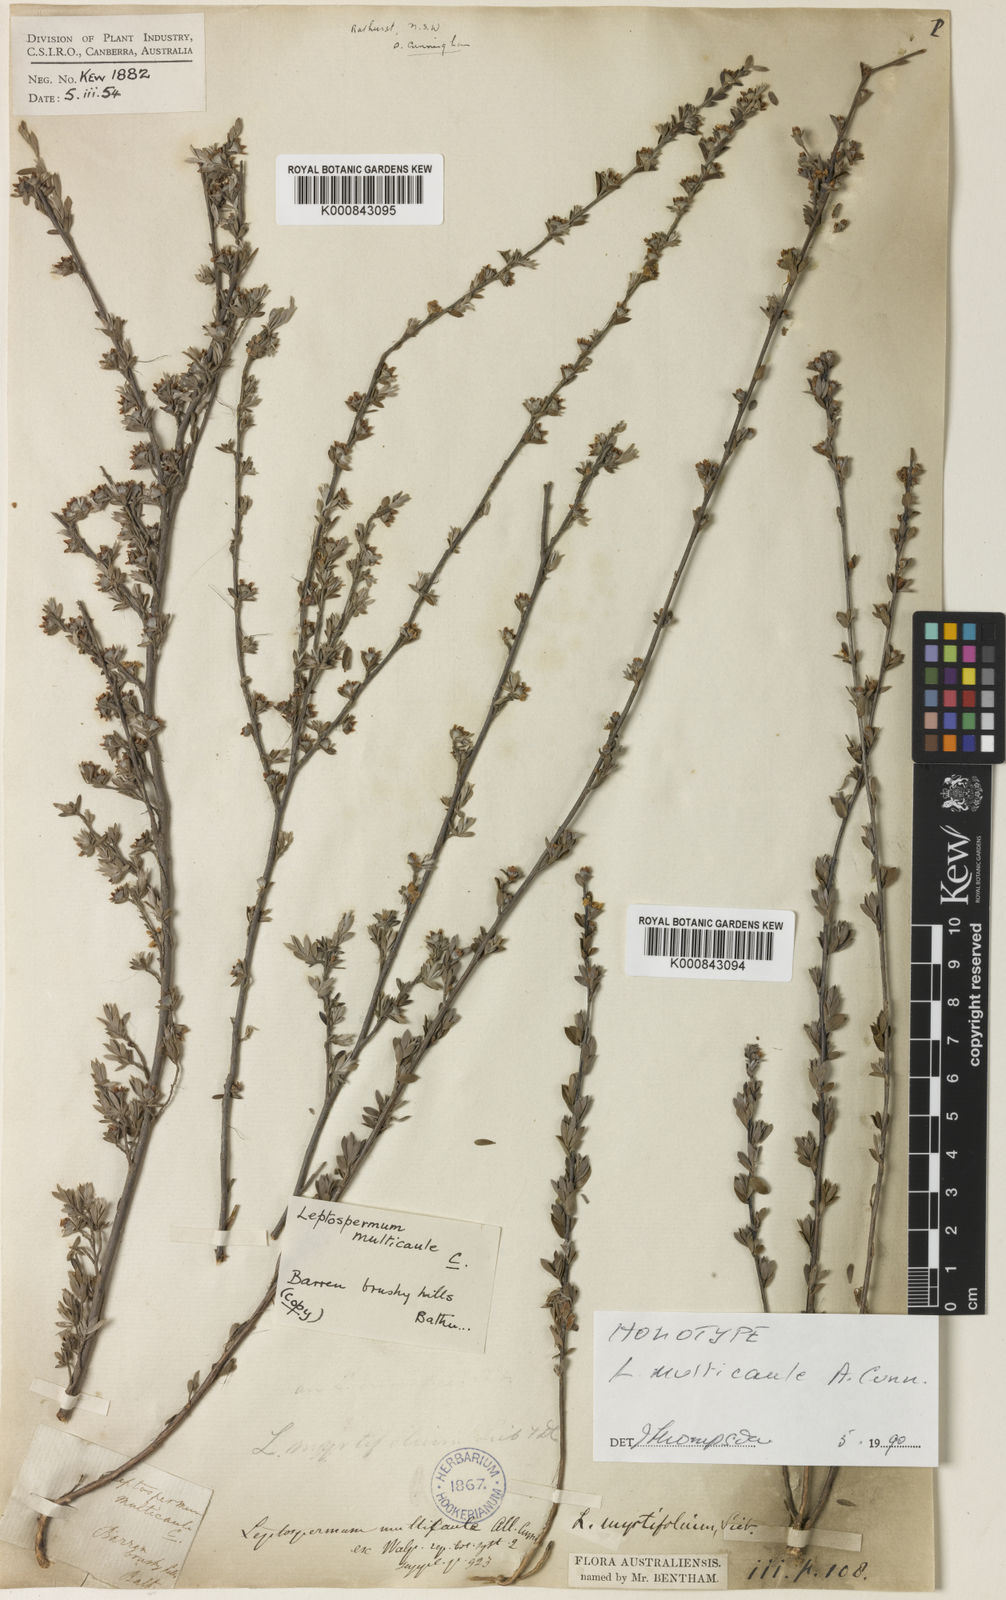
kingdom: Plantae
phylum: Tracheophyta
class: Magnoliopsida
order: Myrtales
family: Myrtaceae
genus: Leptospermum
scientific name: Leptospermum multicaule
